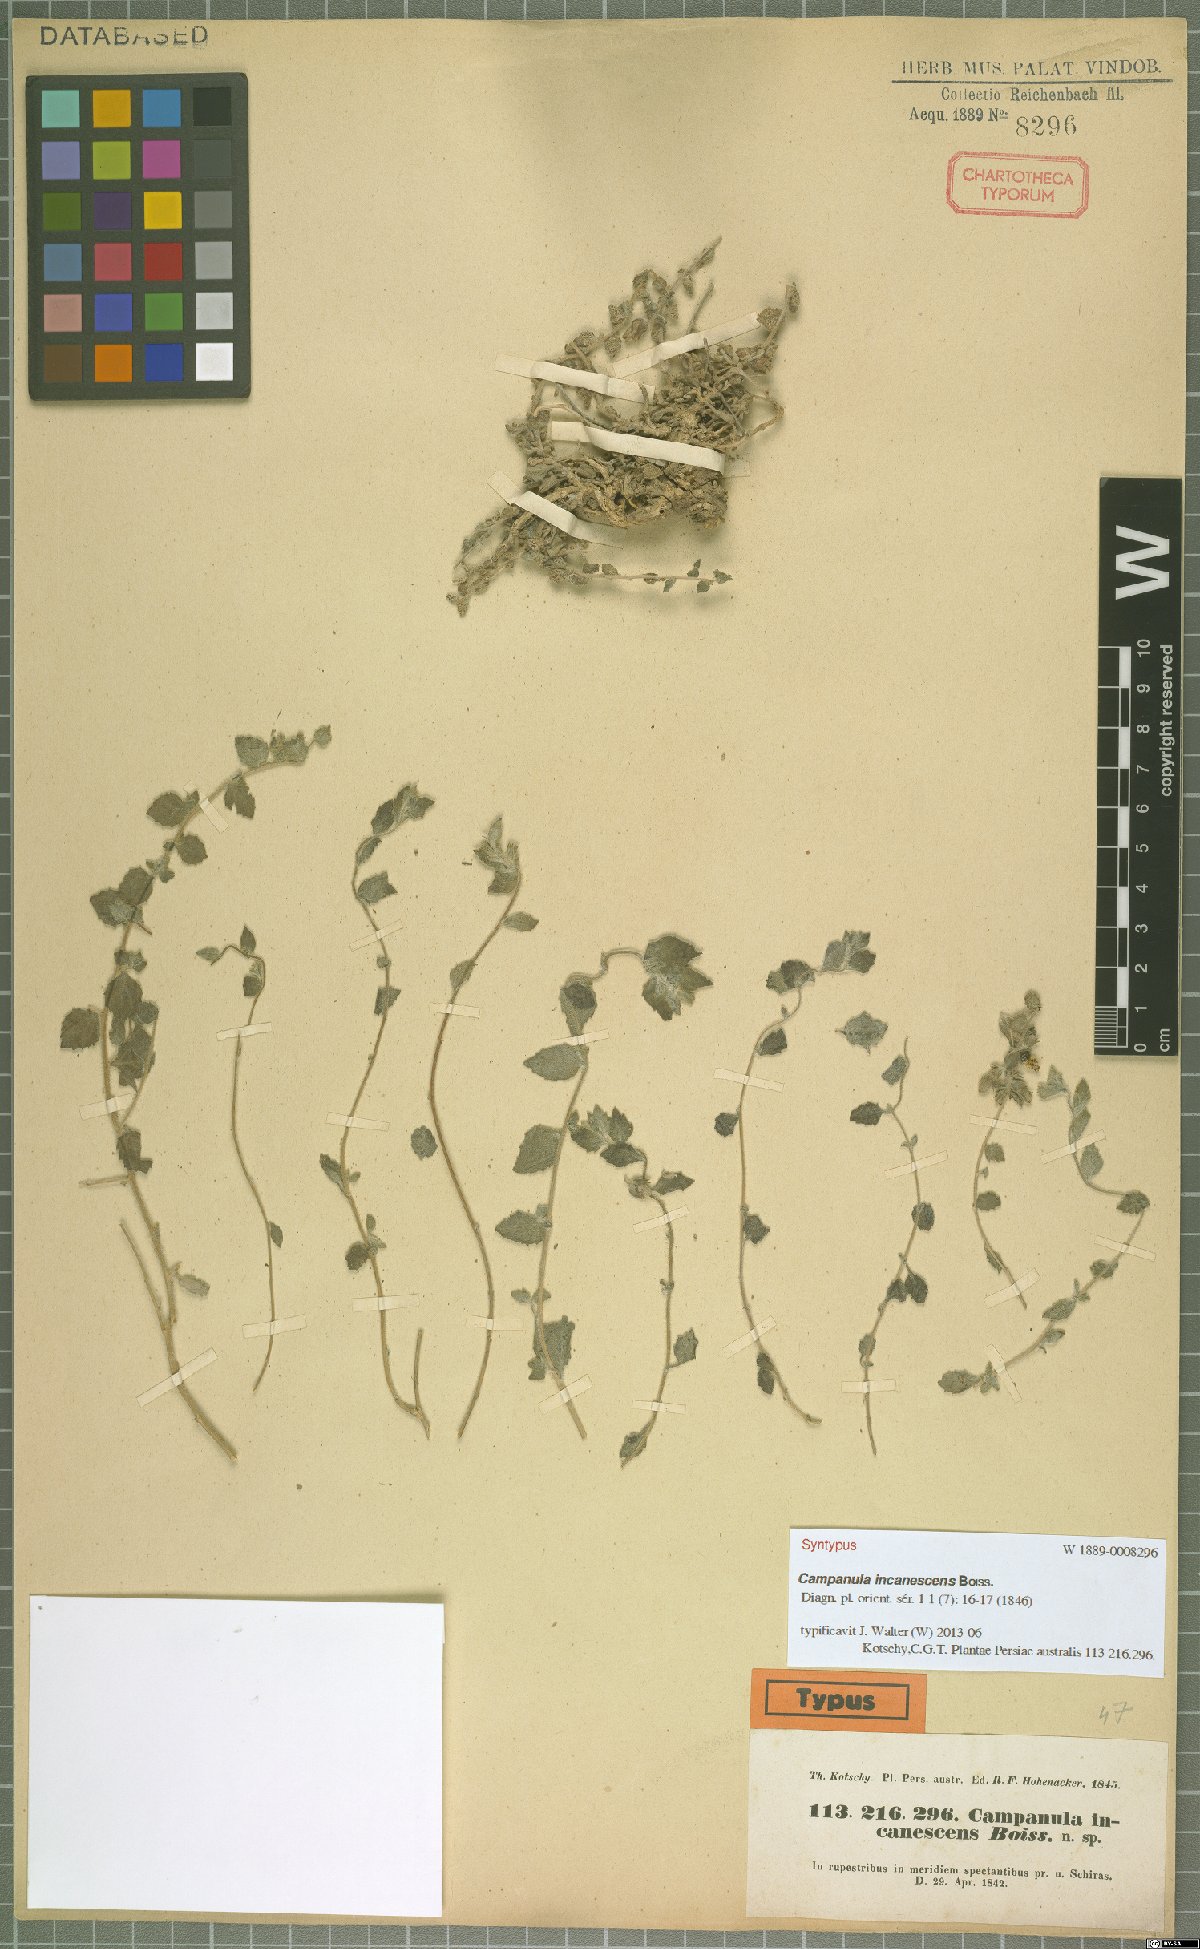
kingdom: Plantae
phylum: Tracheophyta
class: Magnoliopsida
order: Asterales
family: Campanulaceae
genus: Campanula
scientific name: Campanula incanescens
